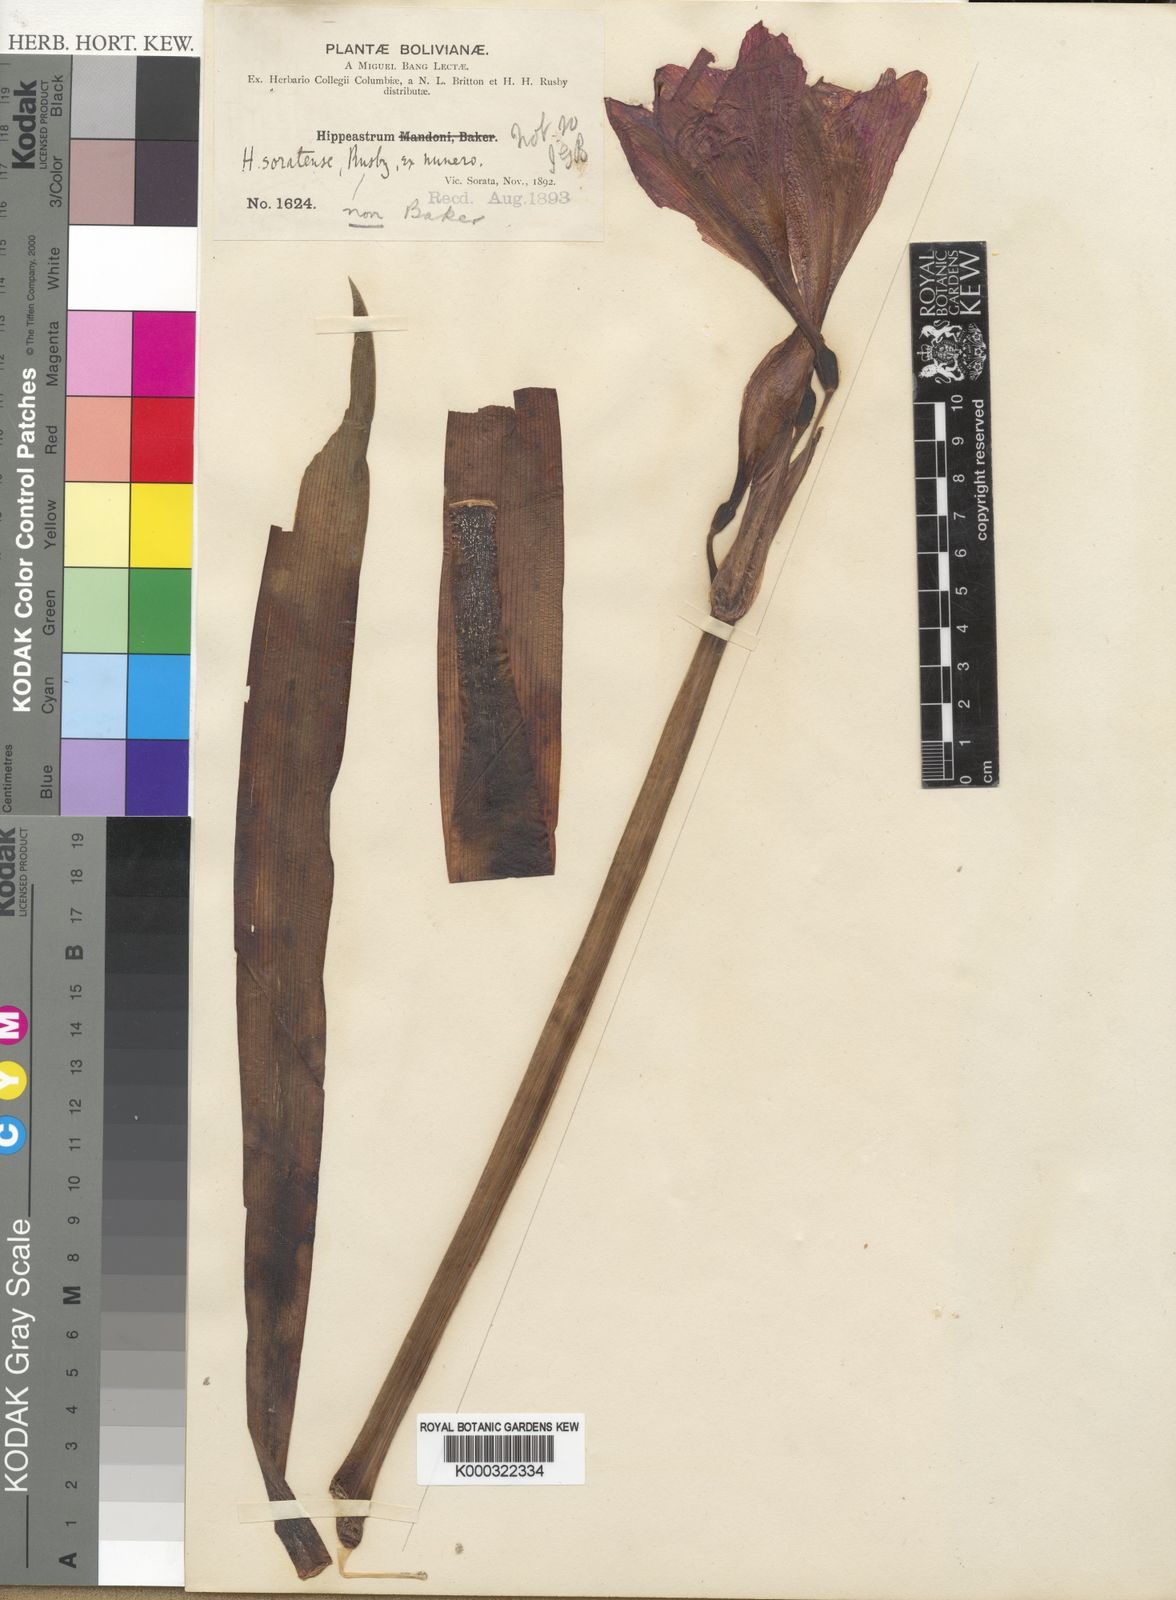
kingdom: Plantae
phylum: Tracheophyta
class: Liliopsida
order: Asparagales
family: Amaryllidaceae
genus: Hippeastrum
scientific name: Hippeastrum haywardii
